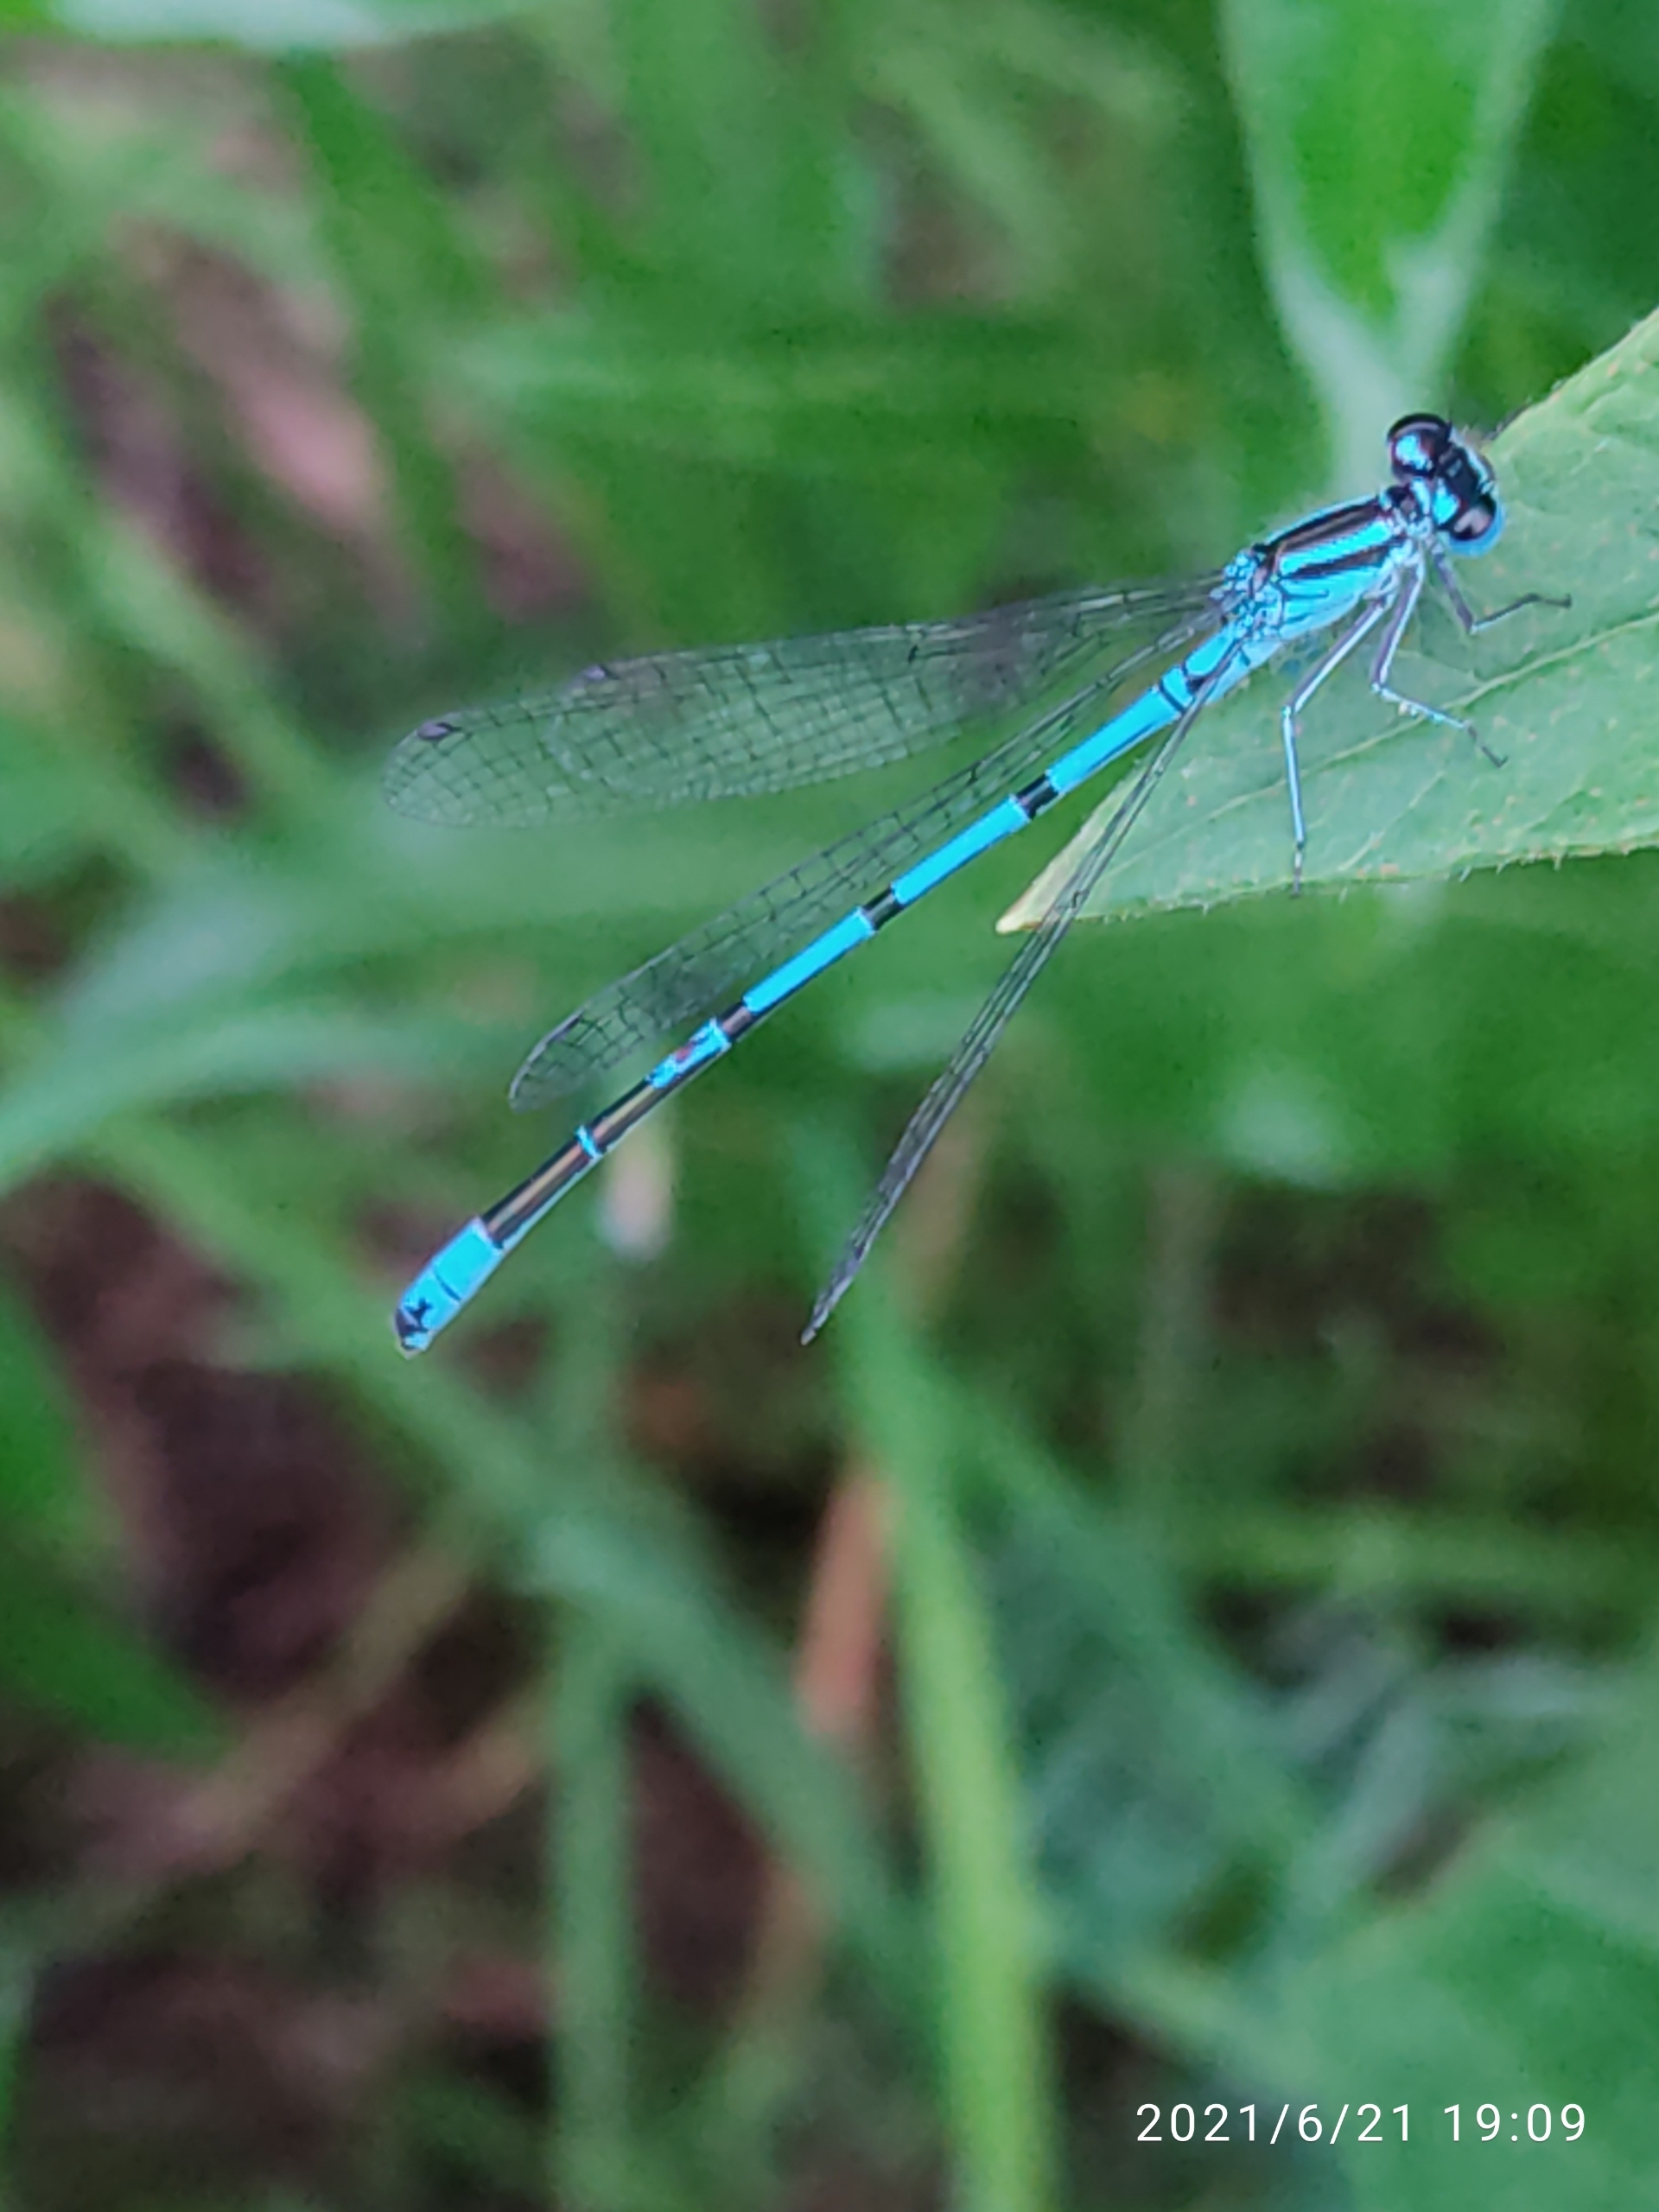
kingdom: Animalia
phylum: Arthropoda
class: Insecta
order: Odonata
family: Coenagrionidae
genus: Coenagrion
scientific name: Coenagrion puella
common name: Hestesko-vandnymfe
